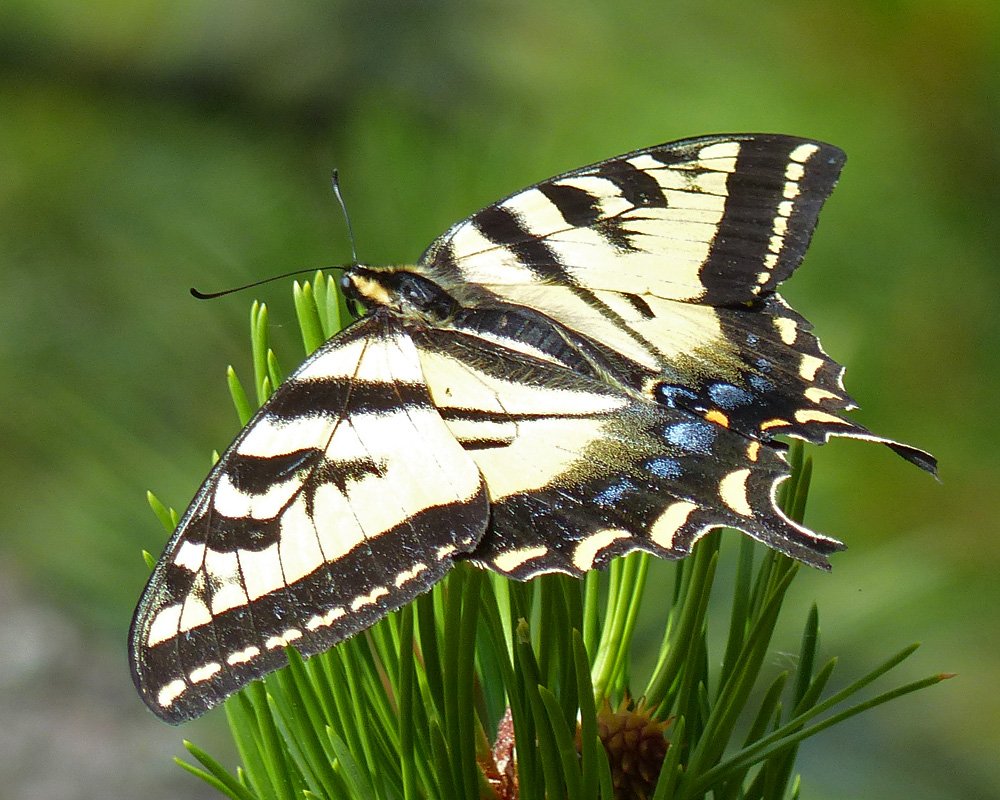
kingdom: Animalia
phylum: Arthropoda
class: Insecta
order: Lepidoptera
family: Papilionidae
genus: Pterourus
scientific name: Pterourus rutulus
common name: Western Tiger Swallowtail
